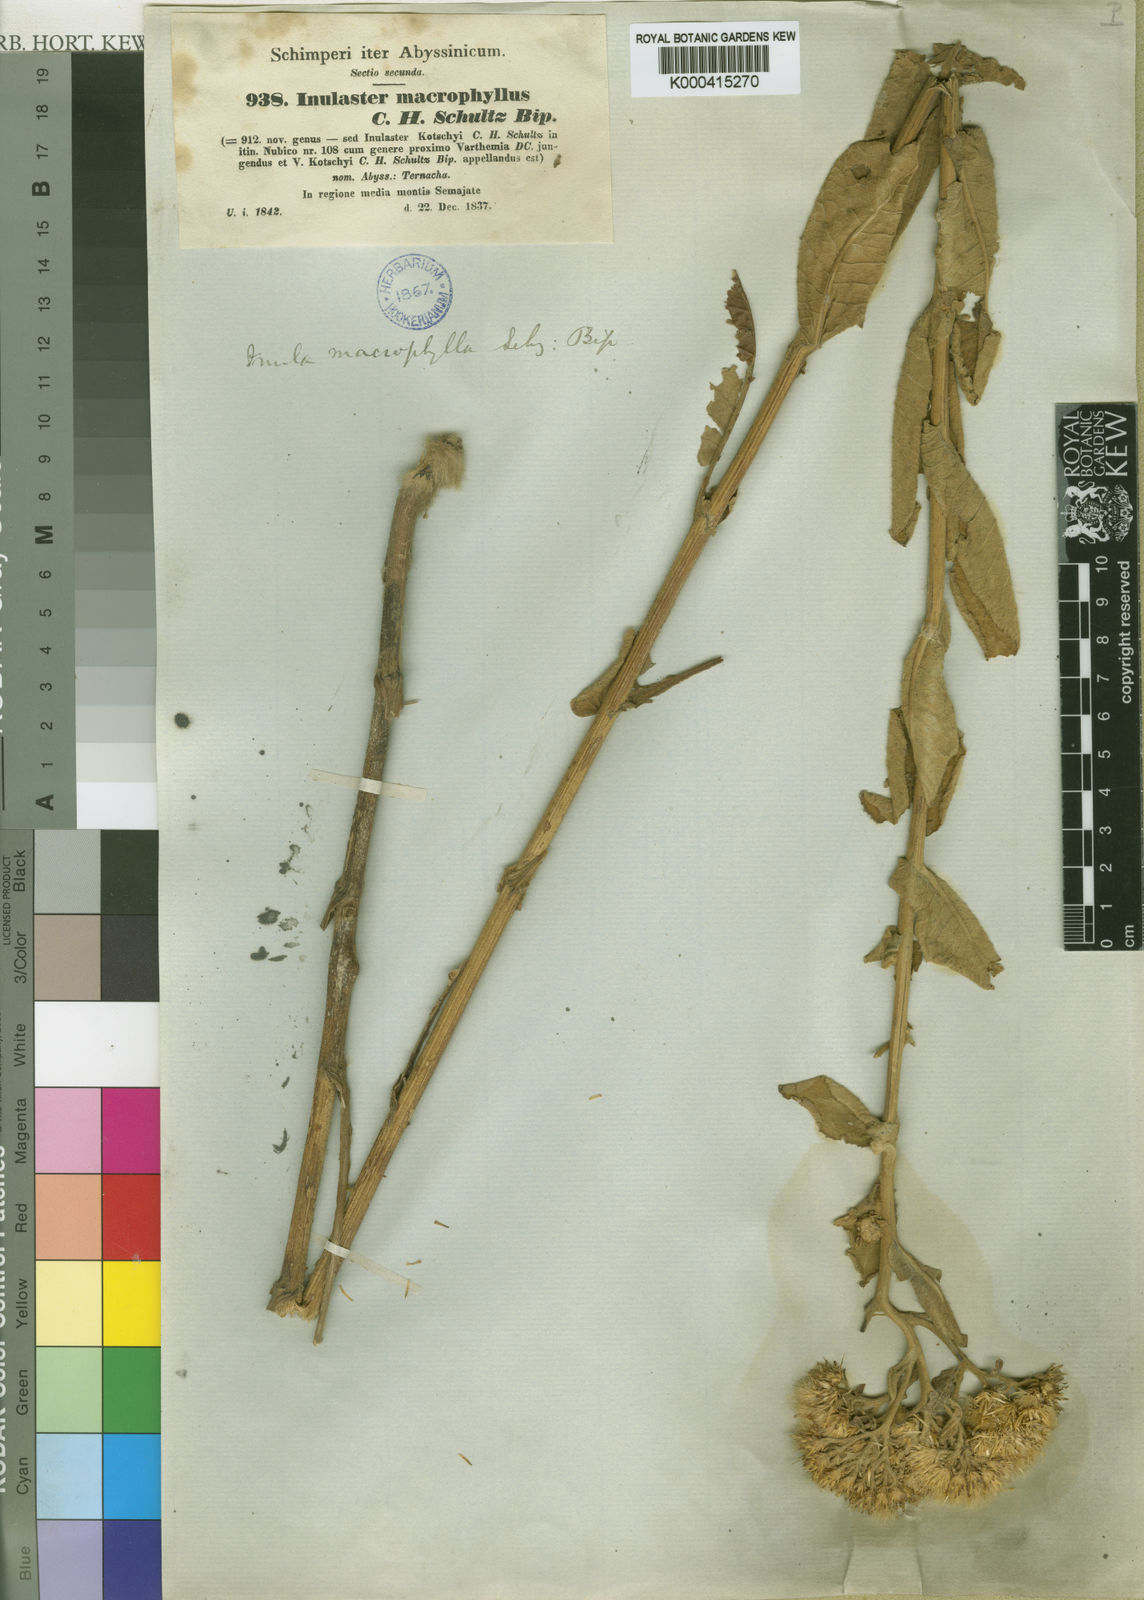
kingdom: Plantae
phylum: Tracheophyta
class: Magnoliopsida
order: Asterales
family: Asteraceae
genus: Monactinocephalus
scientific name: Monactinocephalus paniculatus
